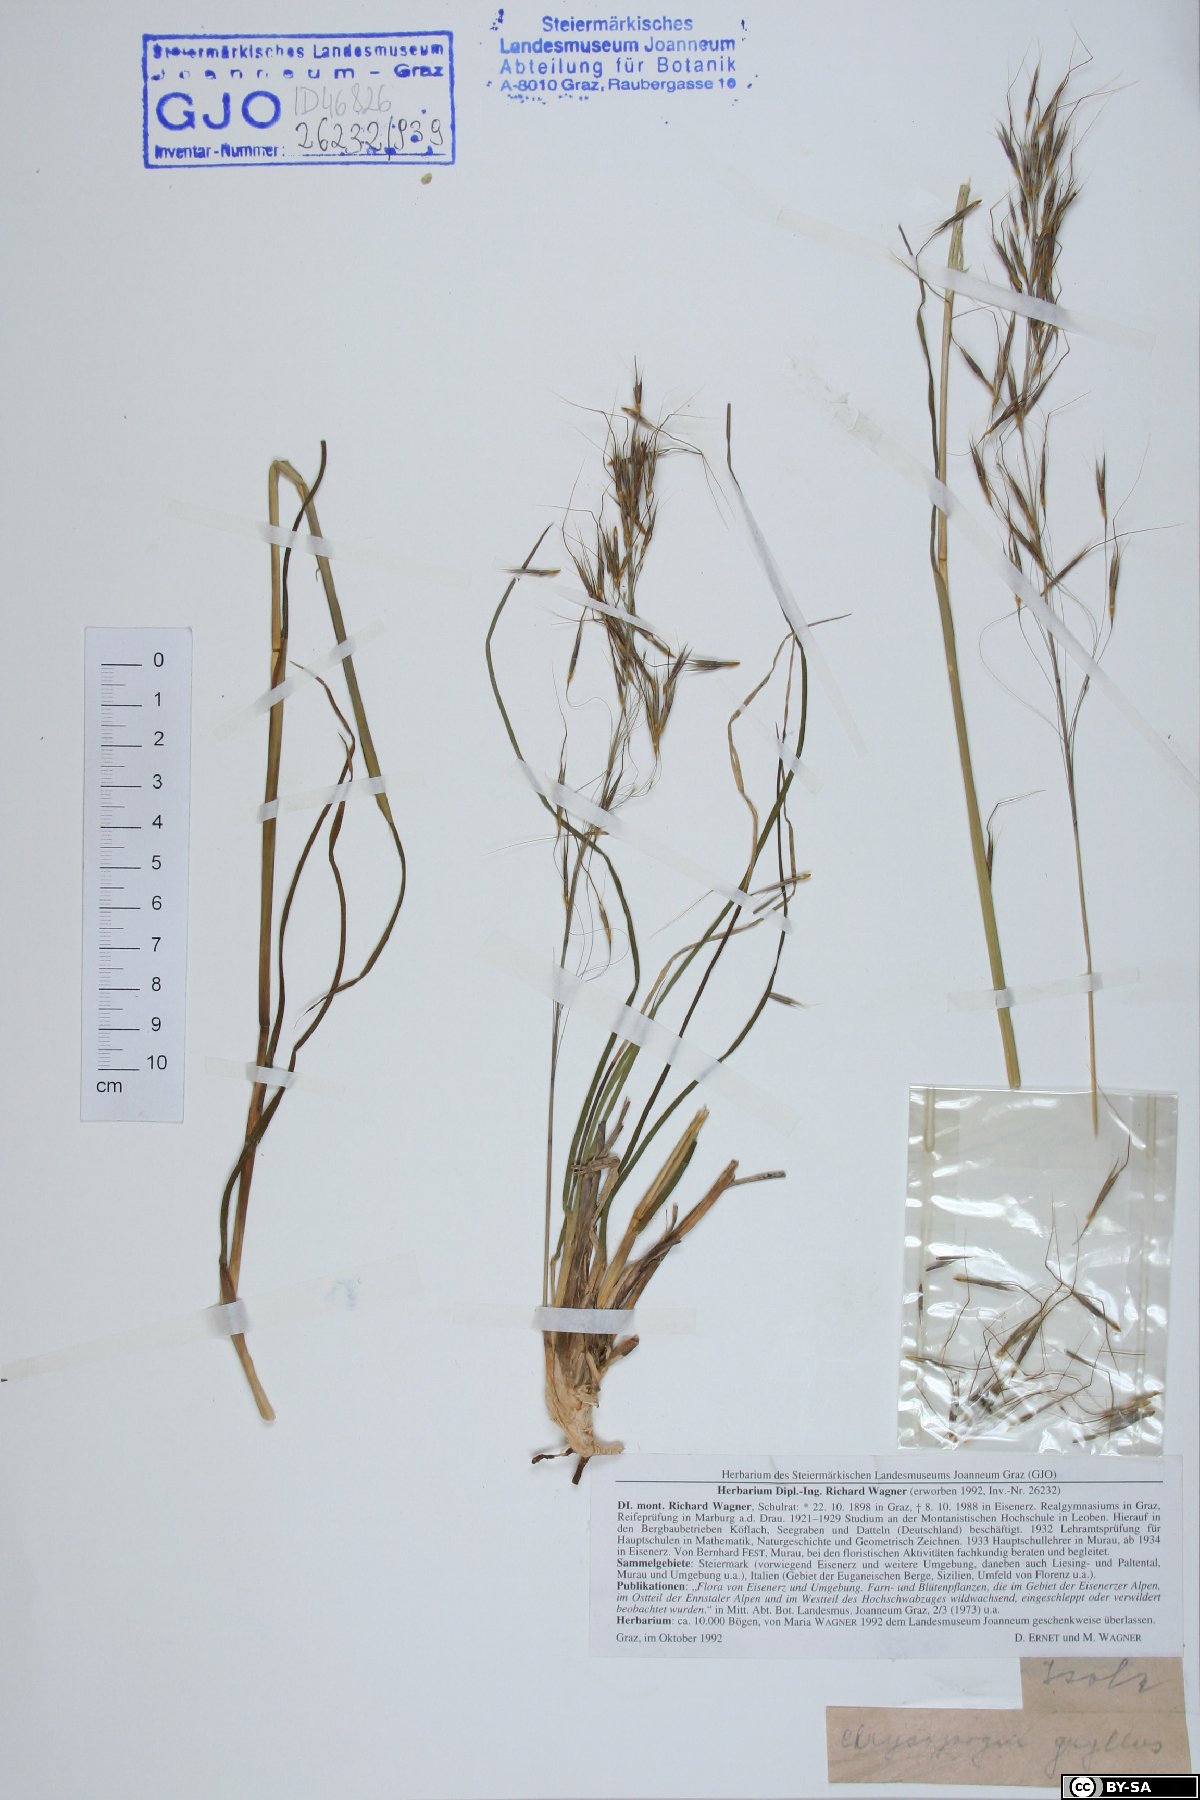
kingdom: Plantae
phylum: Tracheophyta
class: Liliopsida
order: Poales
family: Poaceae
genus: Cynosurus
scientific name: Cynosurus echinatus
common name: Rough dog's-tail
